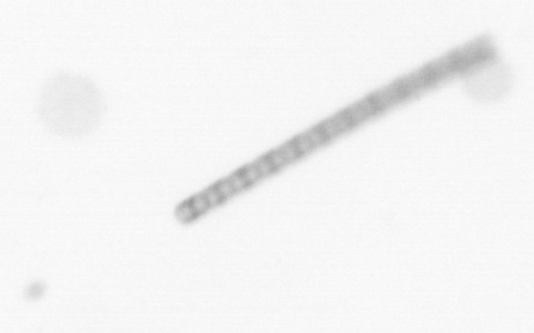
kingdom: Chromista
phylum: Ochrophyta
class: Bacillariophyceae
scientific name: Bacillariophyceae
